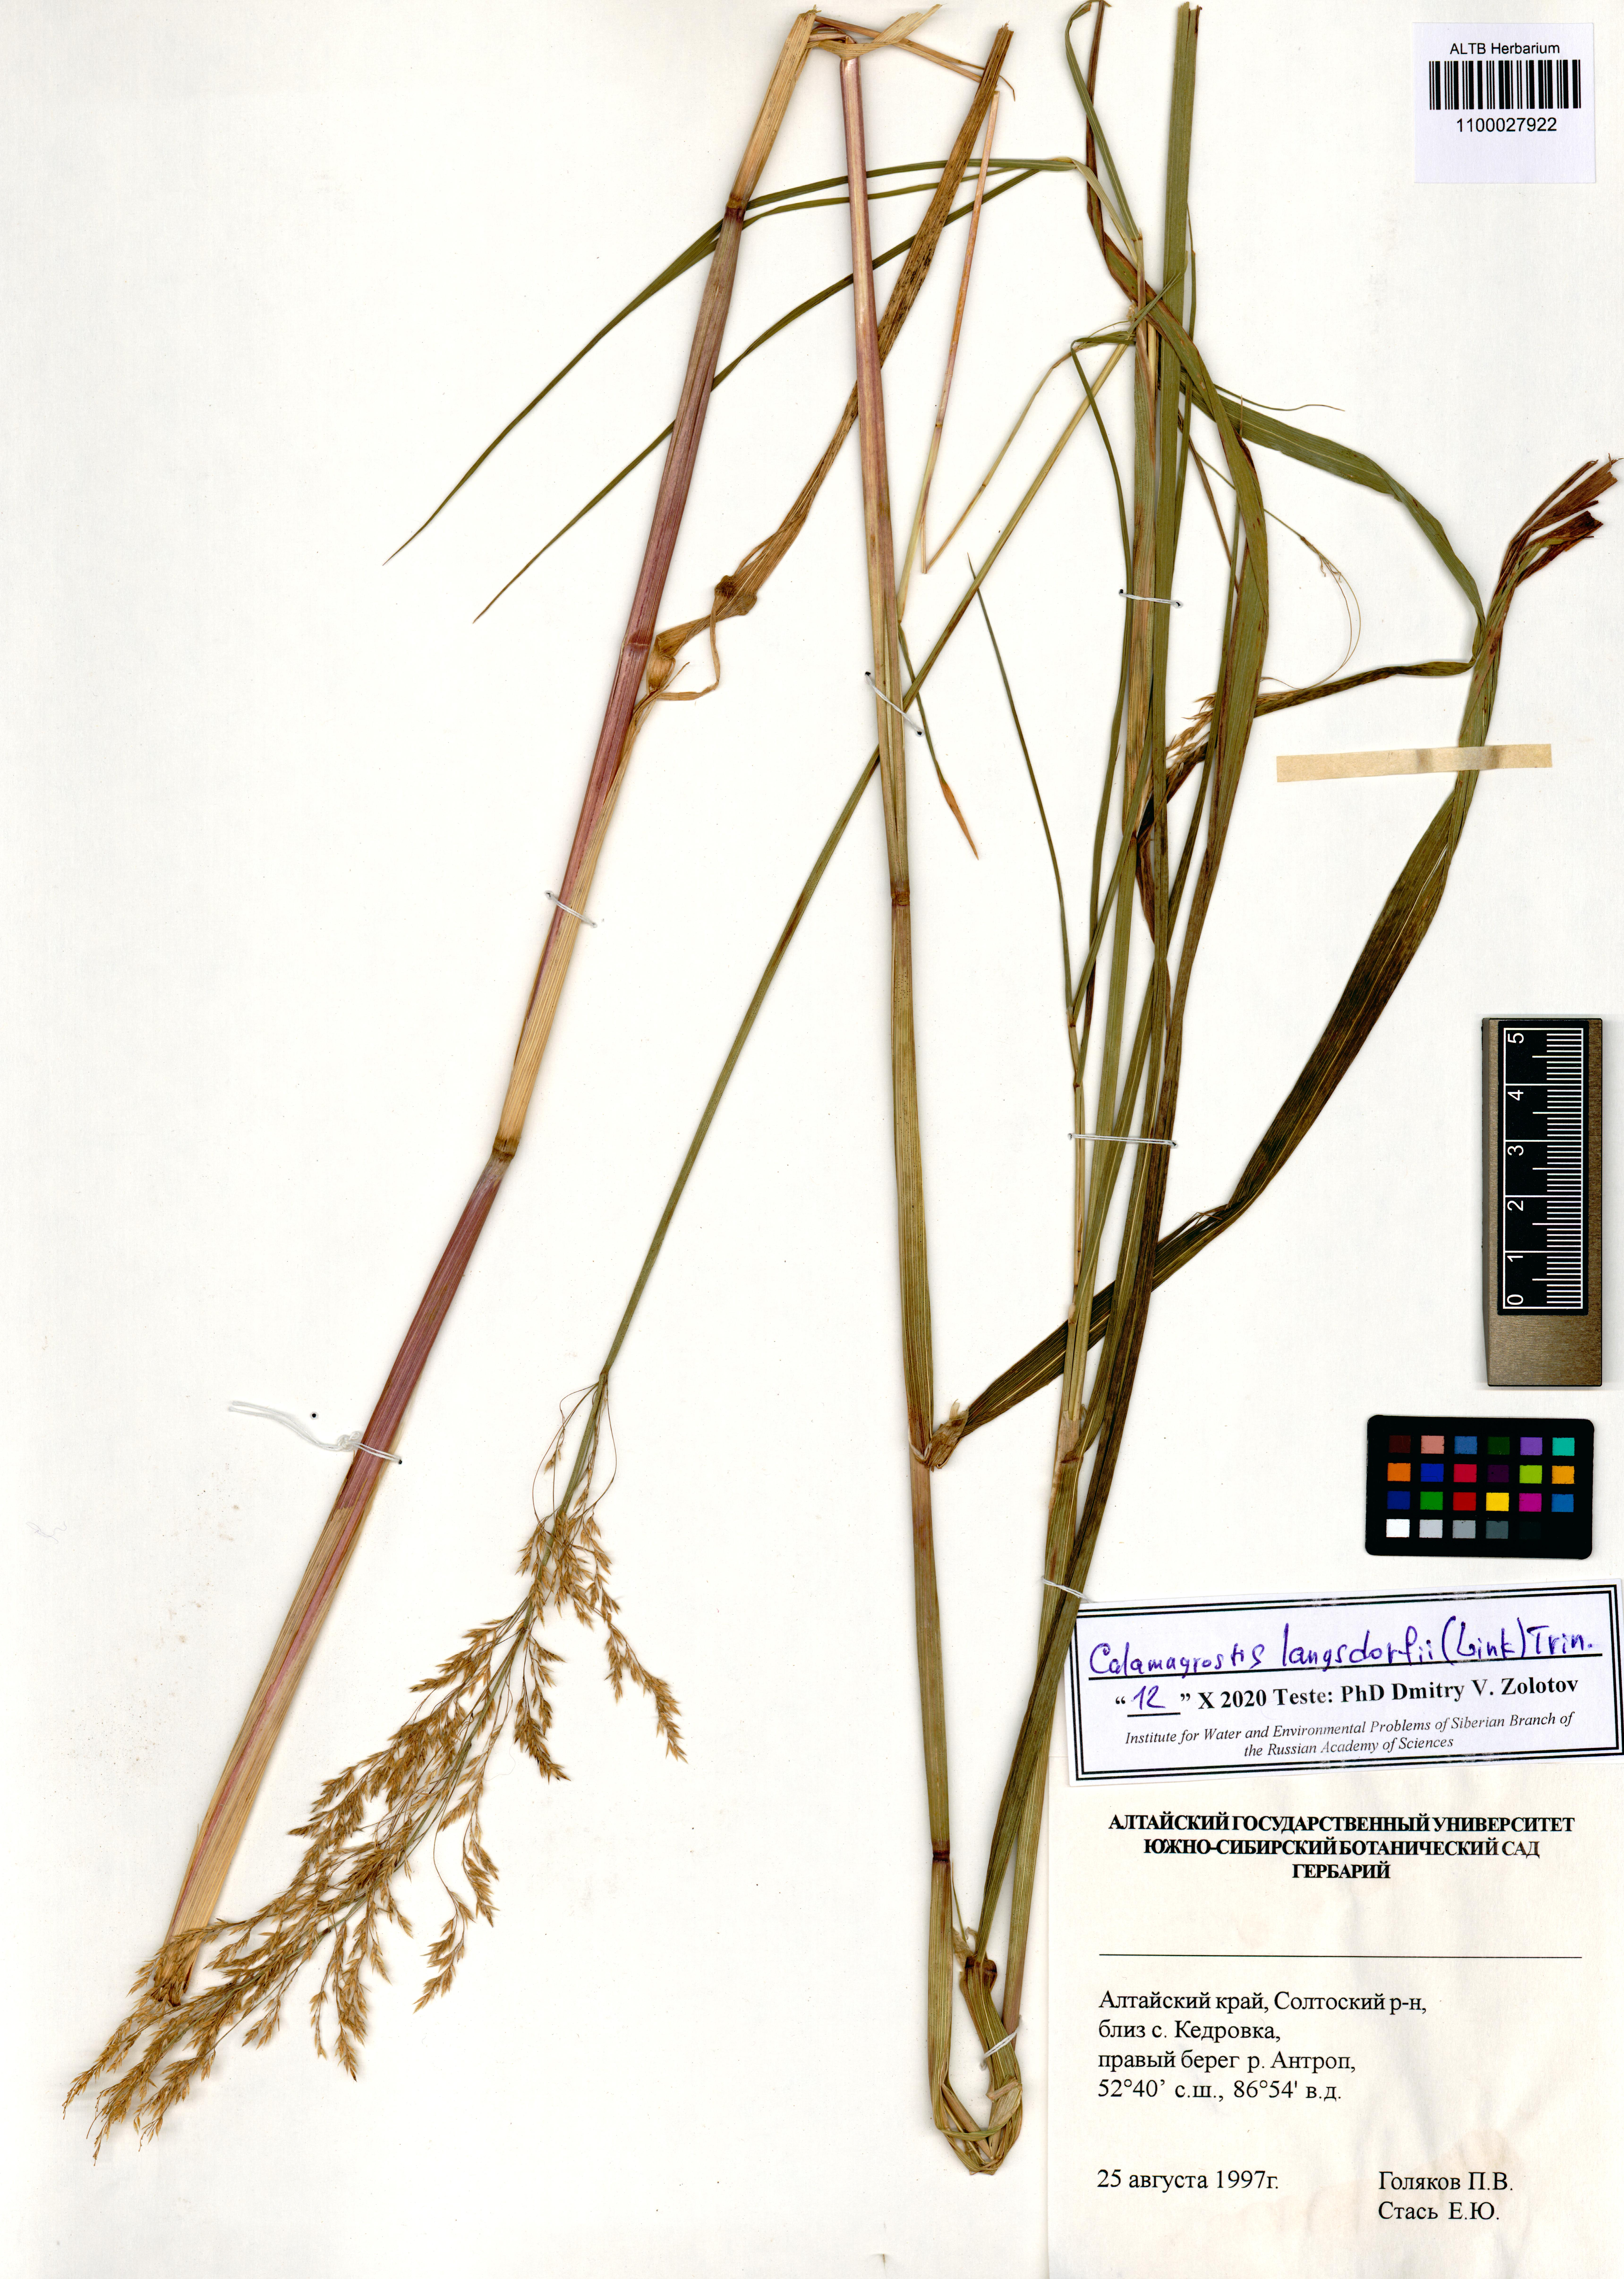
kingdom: Plantae
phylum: Tracheophyta
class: Liliopsida
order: Poales
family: Poaceae
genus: Calamagrostis
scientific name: Calamagrostis purpurea
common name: Scandinavian small-reed
